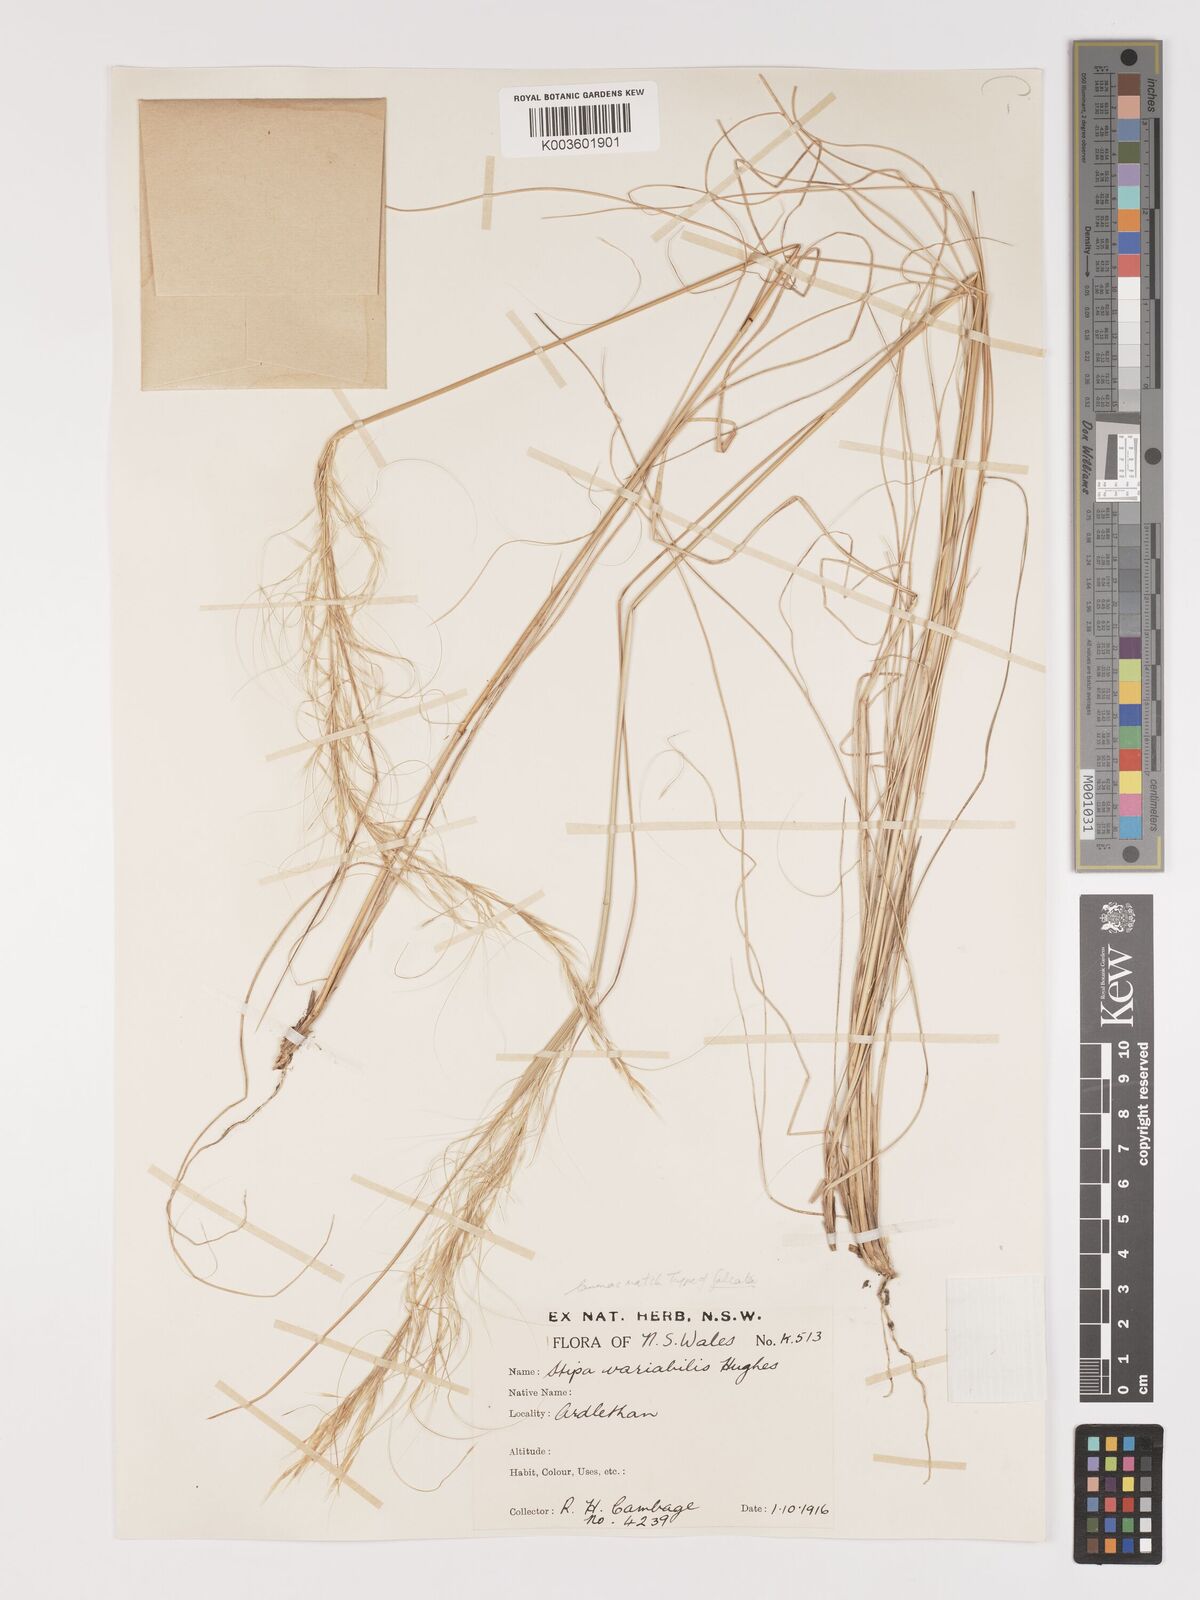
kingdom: Plantae
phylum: Tracheophyta
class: Liliopsida
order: Poales
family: Poaceae
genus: Austrostipa
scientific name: Austrostipa nitida
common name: Balcarra grass
